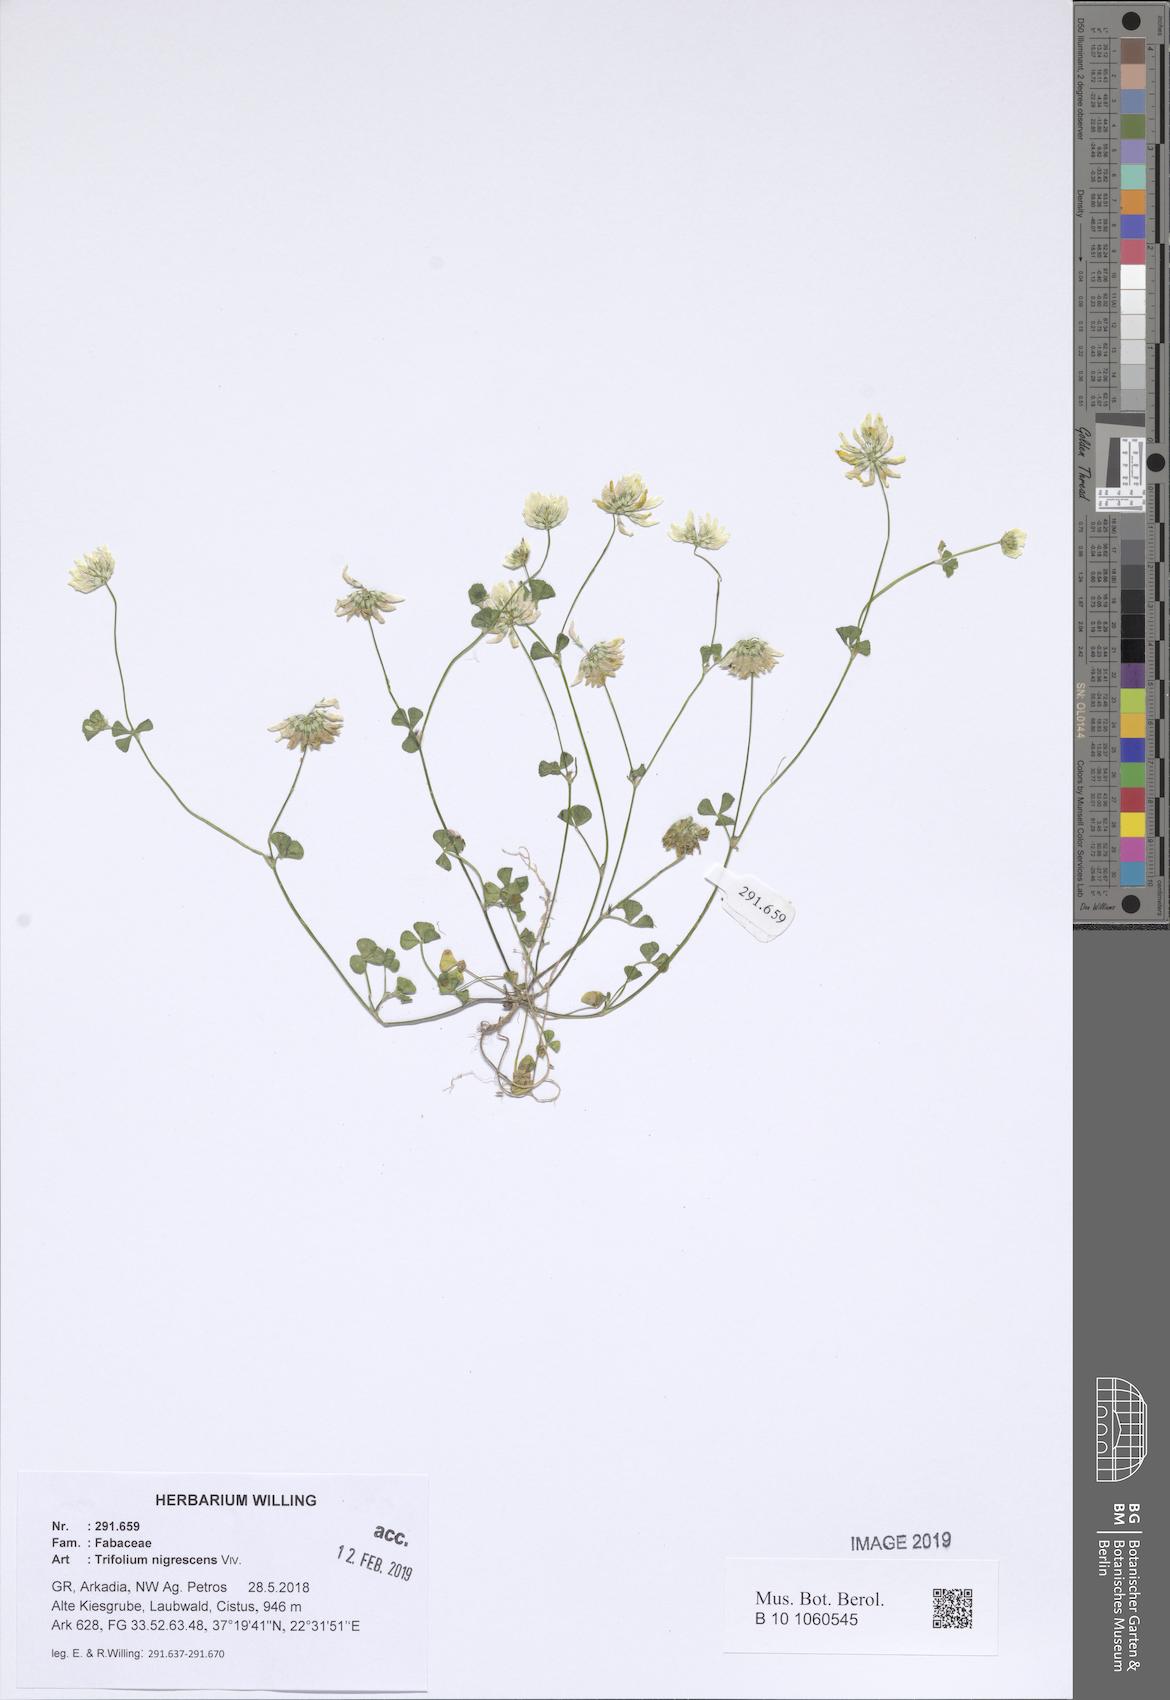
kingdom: Plantae
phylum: Tracheophyta
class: Magnoliopsida
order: Fabales
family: Fabaceae
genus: Trifolium
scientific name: Trifolium nigrescens
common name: Small white clover
